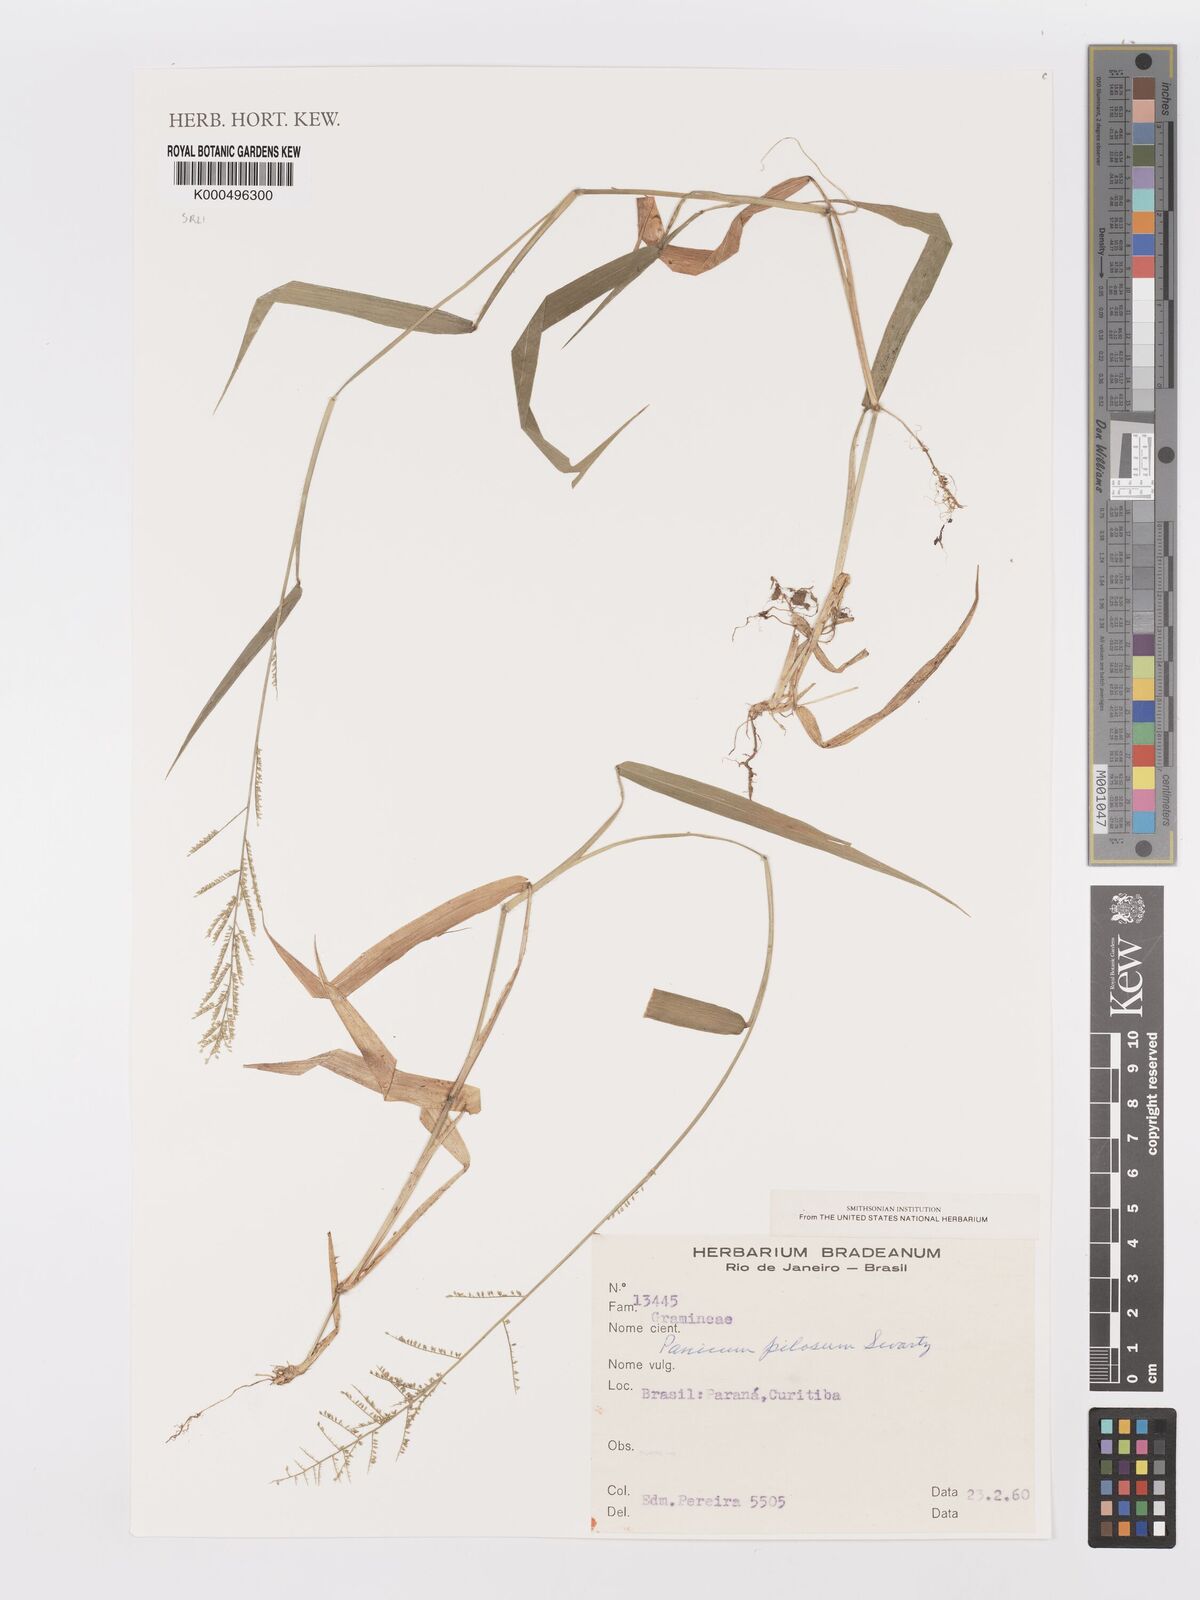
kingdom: Plantae
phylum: Tracheophyta
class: Liliopsida
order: Poales
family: Poaceae
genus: Panicum
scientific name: Panicum
